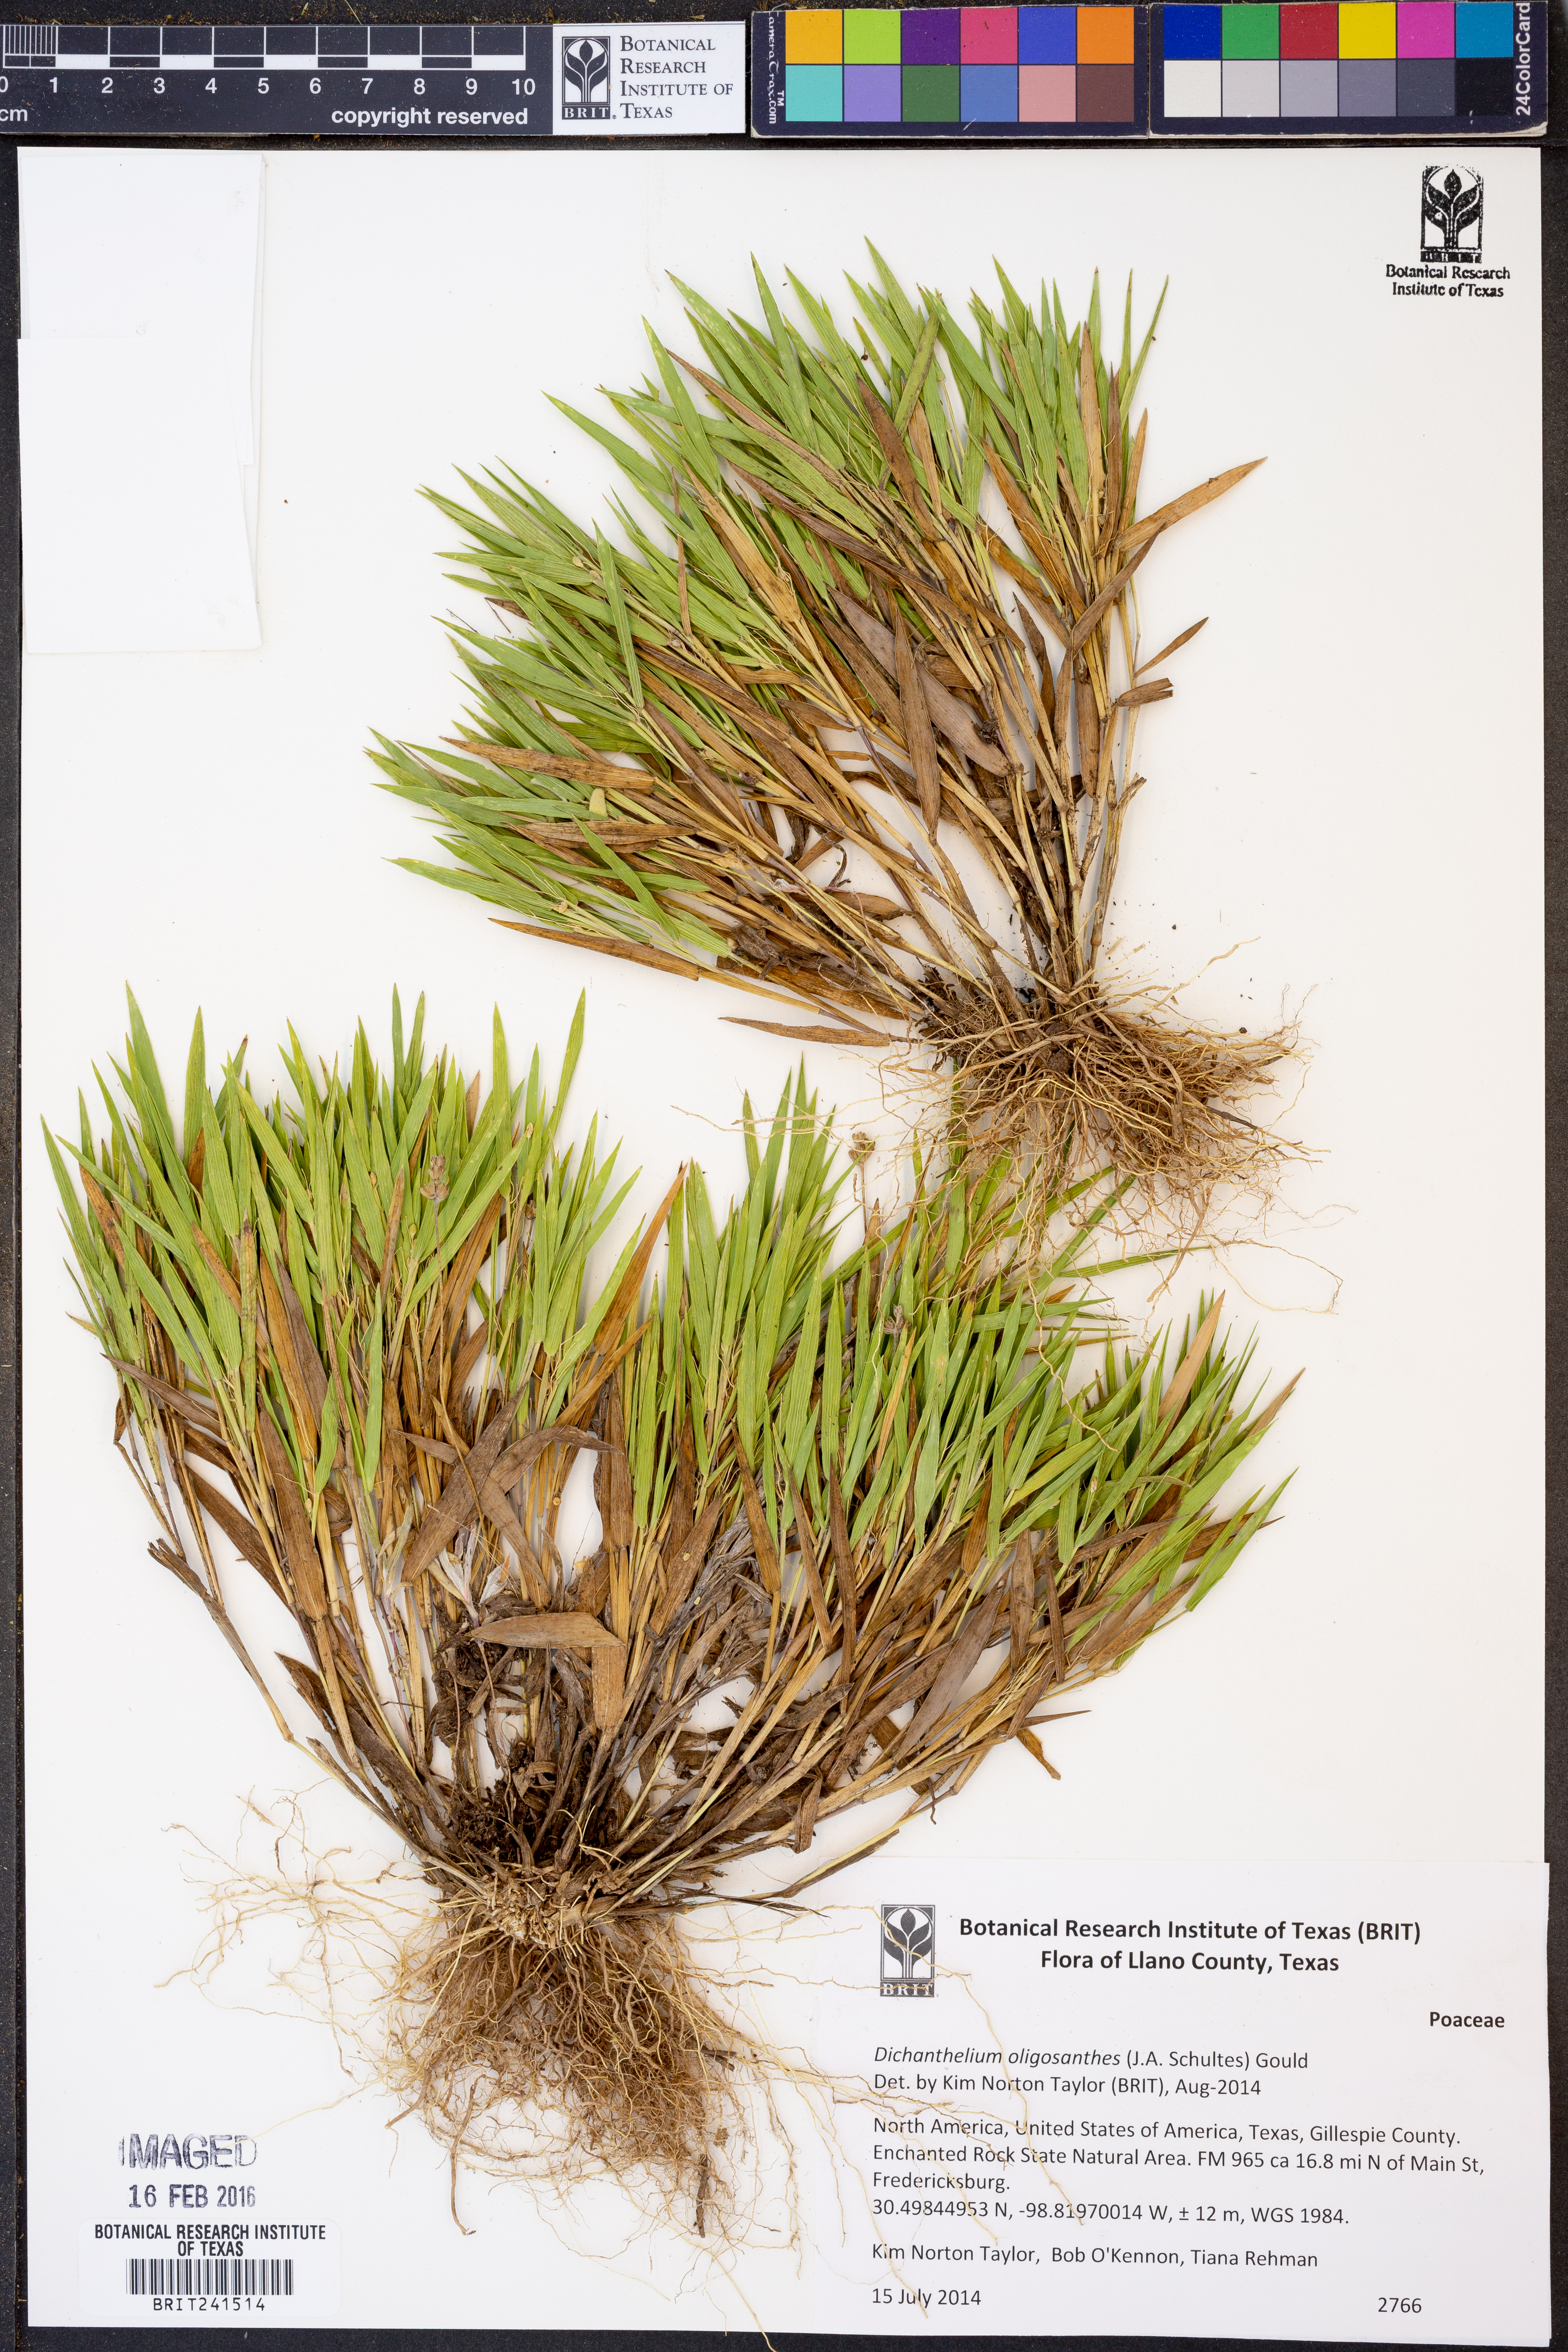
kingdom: Plantae
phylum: Tracheophyta
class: Liliopsida
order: Poales
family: Poaceae
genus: Dichanthelium
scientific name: Dichanthelium oligosanthes
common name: Few-anther obscuregrass
